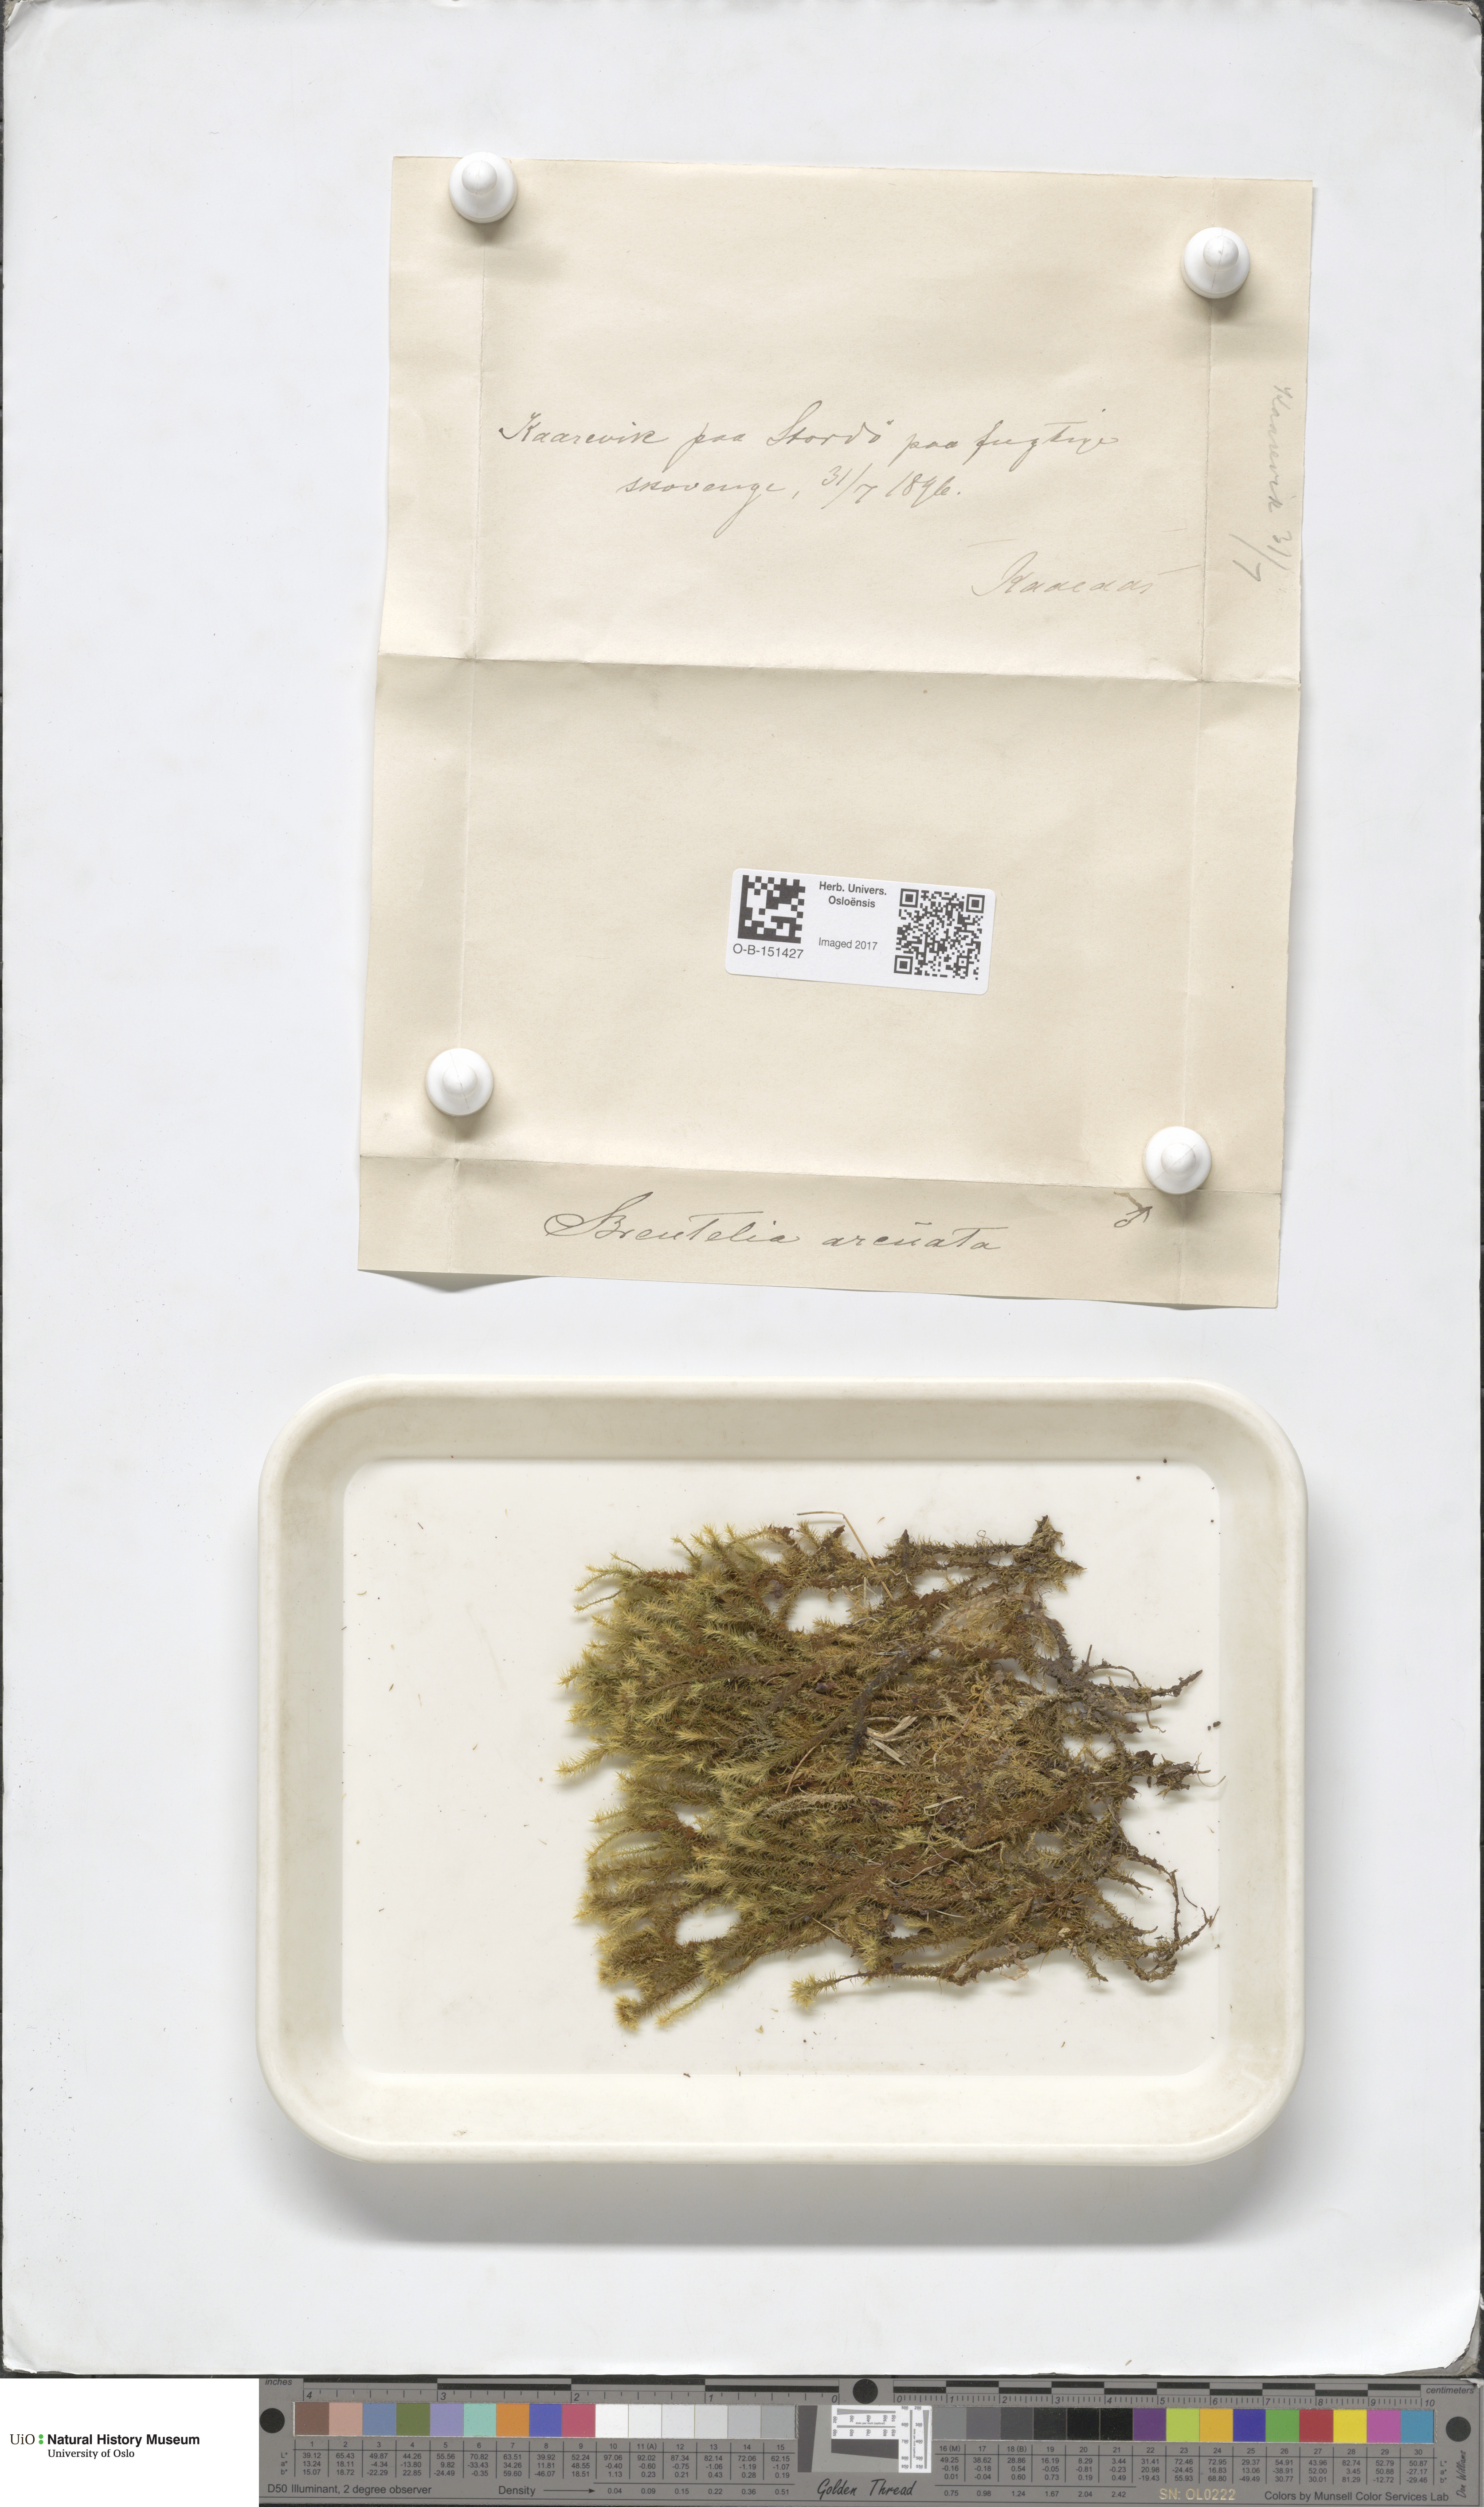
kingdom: Plantae
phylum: Bryophyta
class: Bryopsida
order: Bartramiales
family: Bartramiaceae
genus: Breutelia
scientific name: Breutelia chrysocoma
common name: Bottle-brush moss
